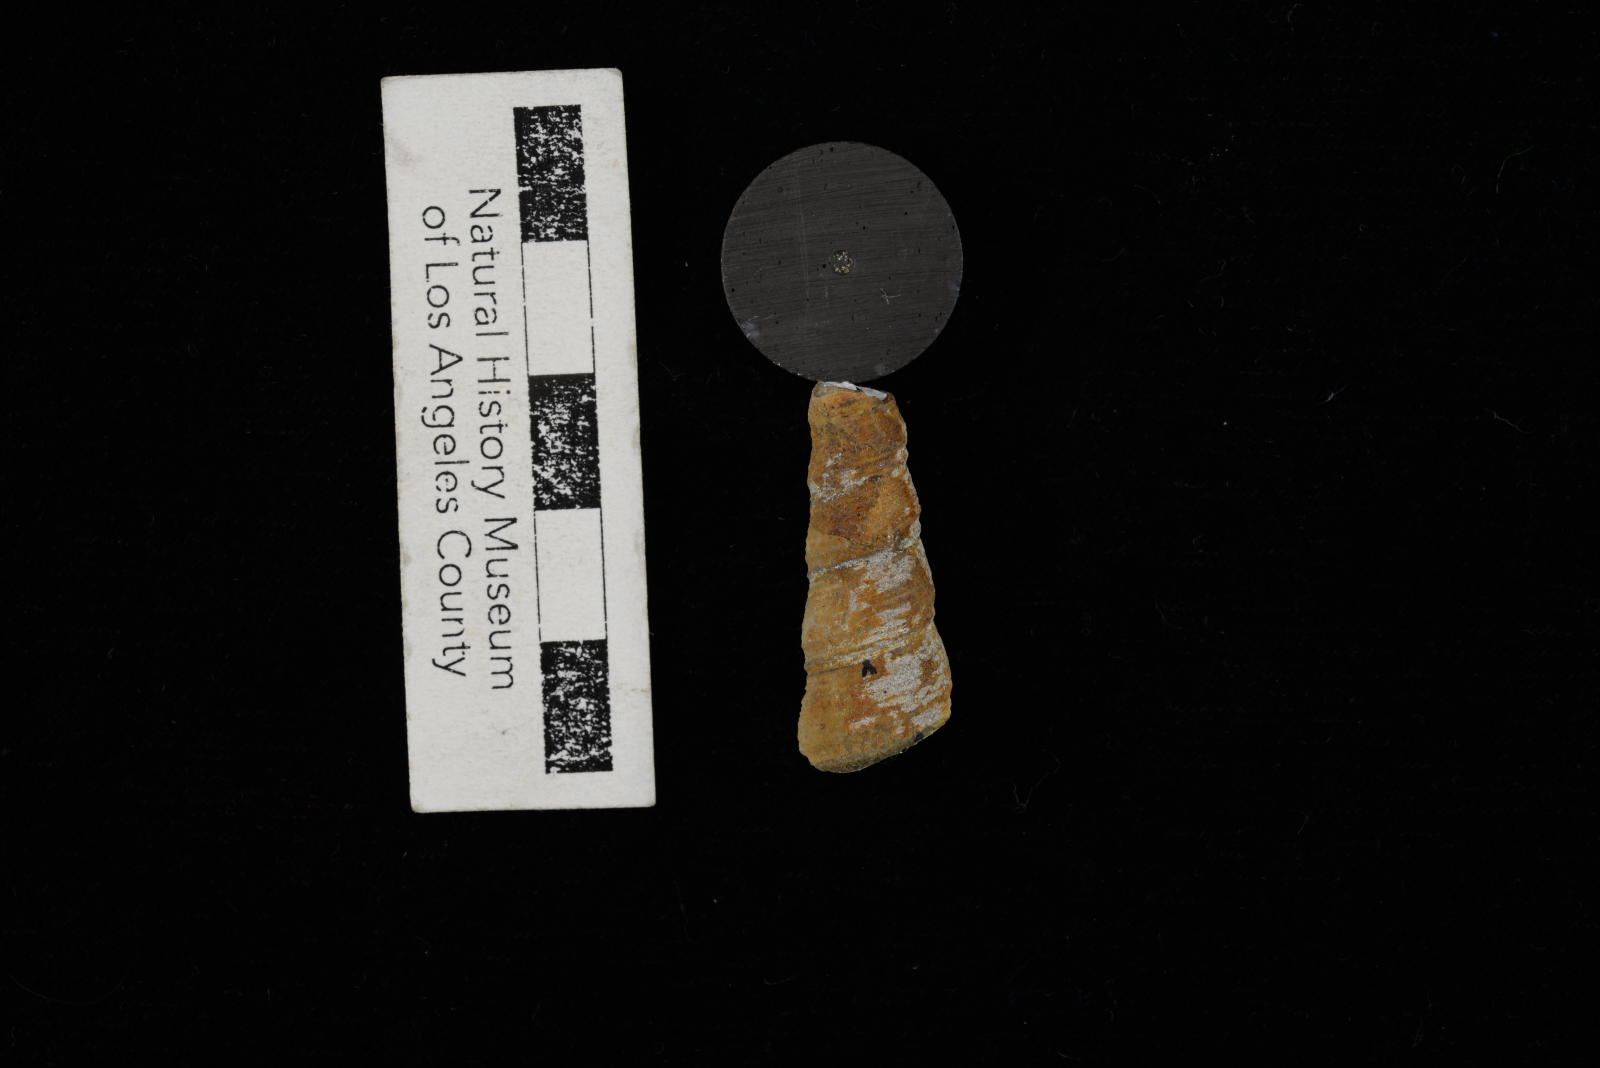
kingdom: Animalia
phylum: Mollusca
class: Gastropoda
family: Turritellidae
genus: Turritella
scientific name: Turritella
